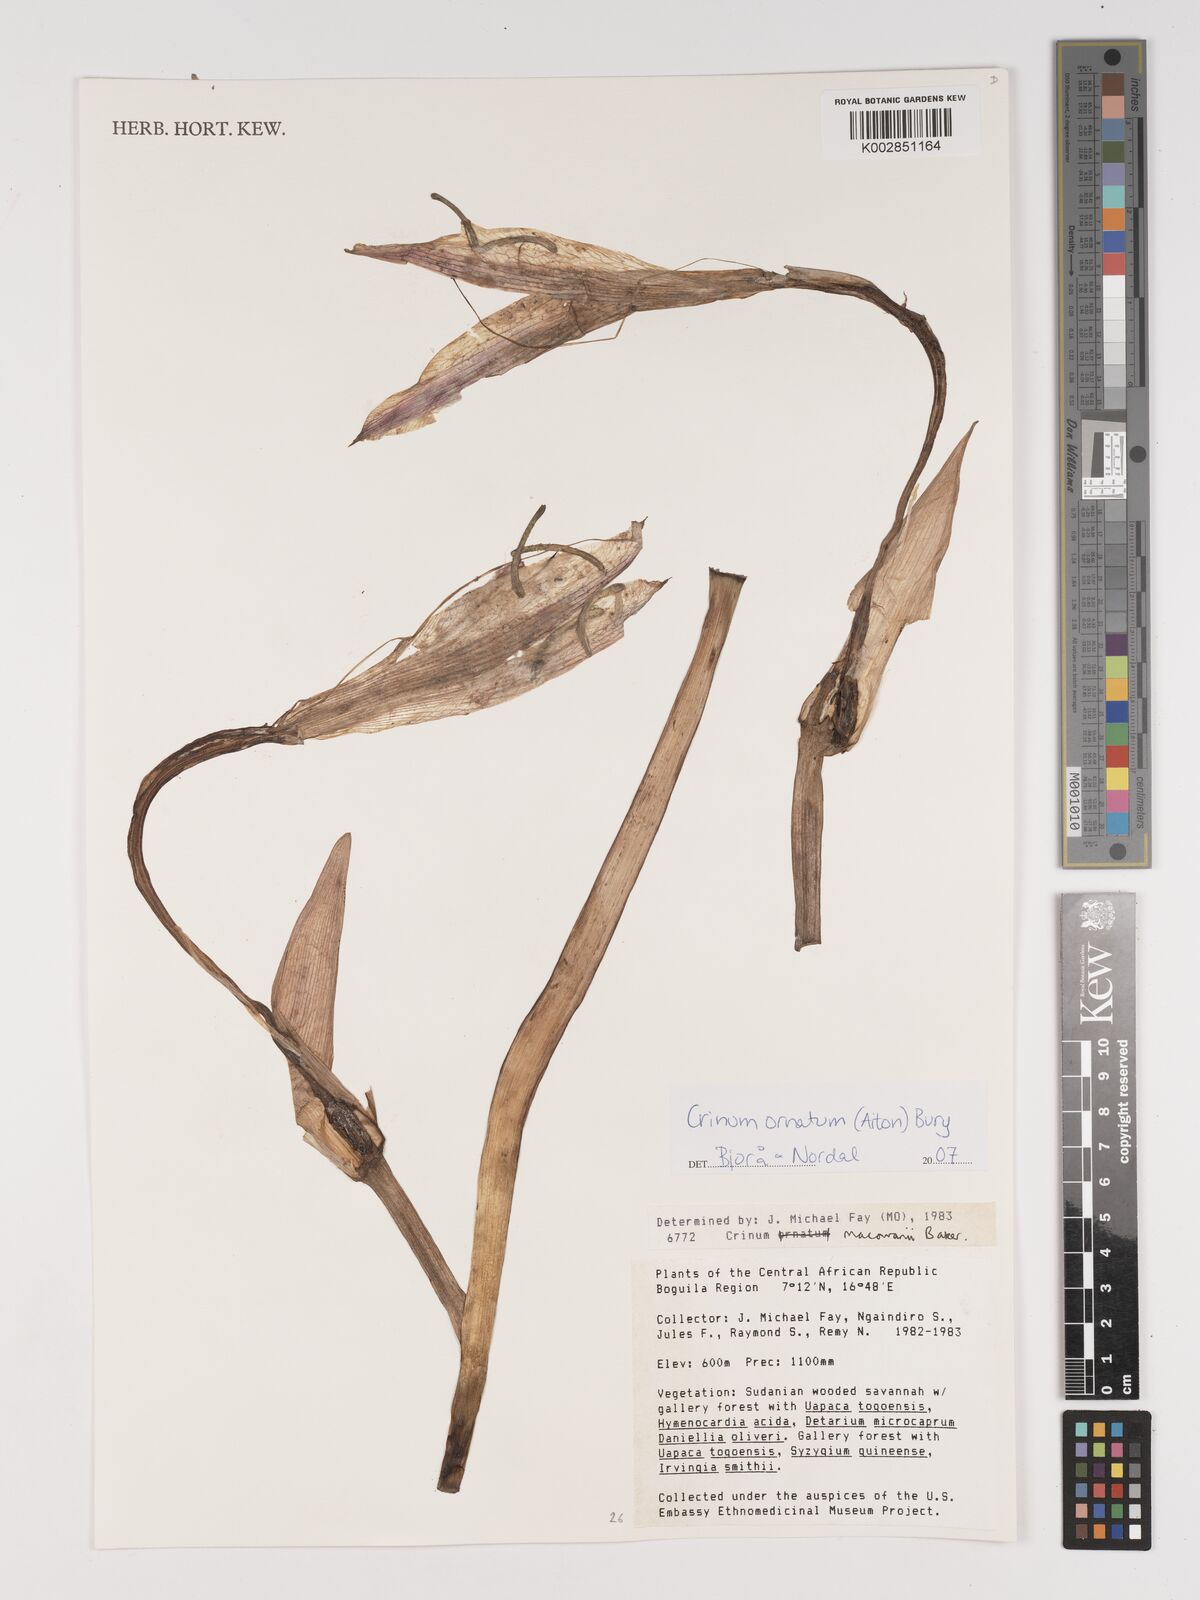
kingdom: Plantae
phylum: Tracheophyta
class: Liliopsida
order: Asparagales
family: Amaryllidaceae
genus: Crinum
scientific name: Crinum macowanii
